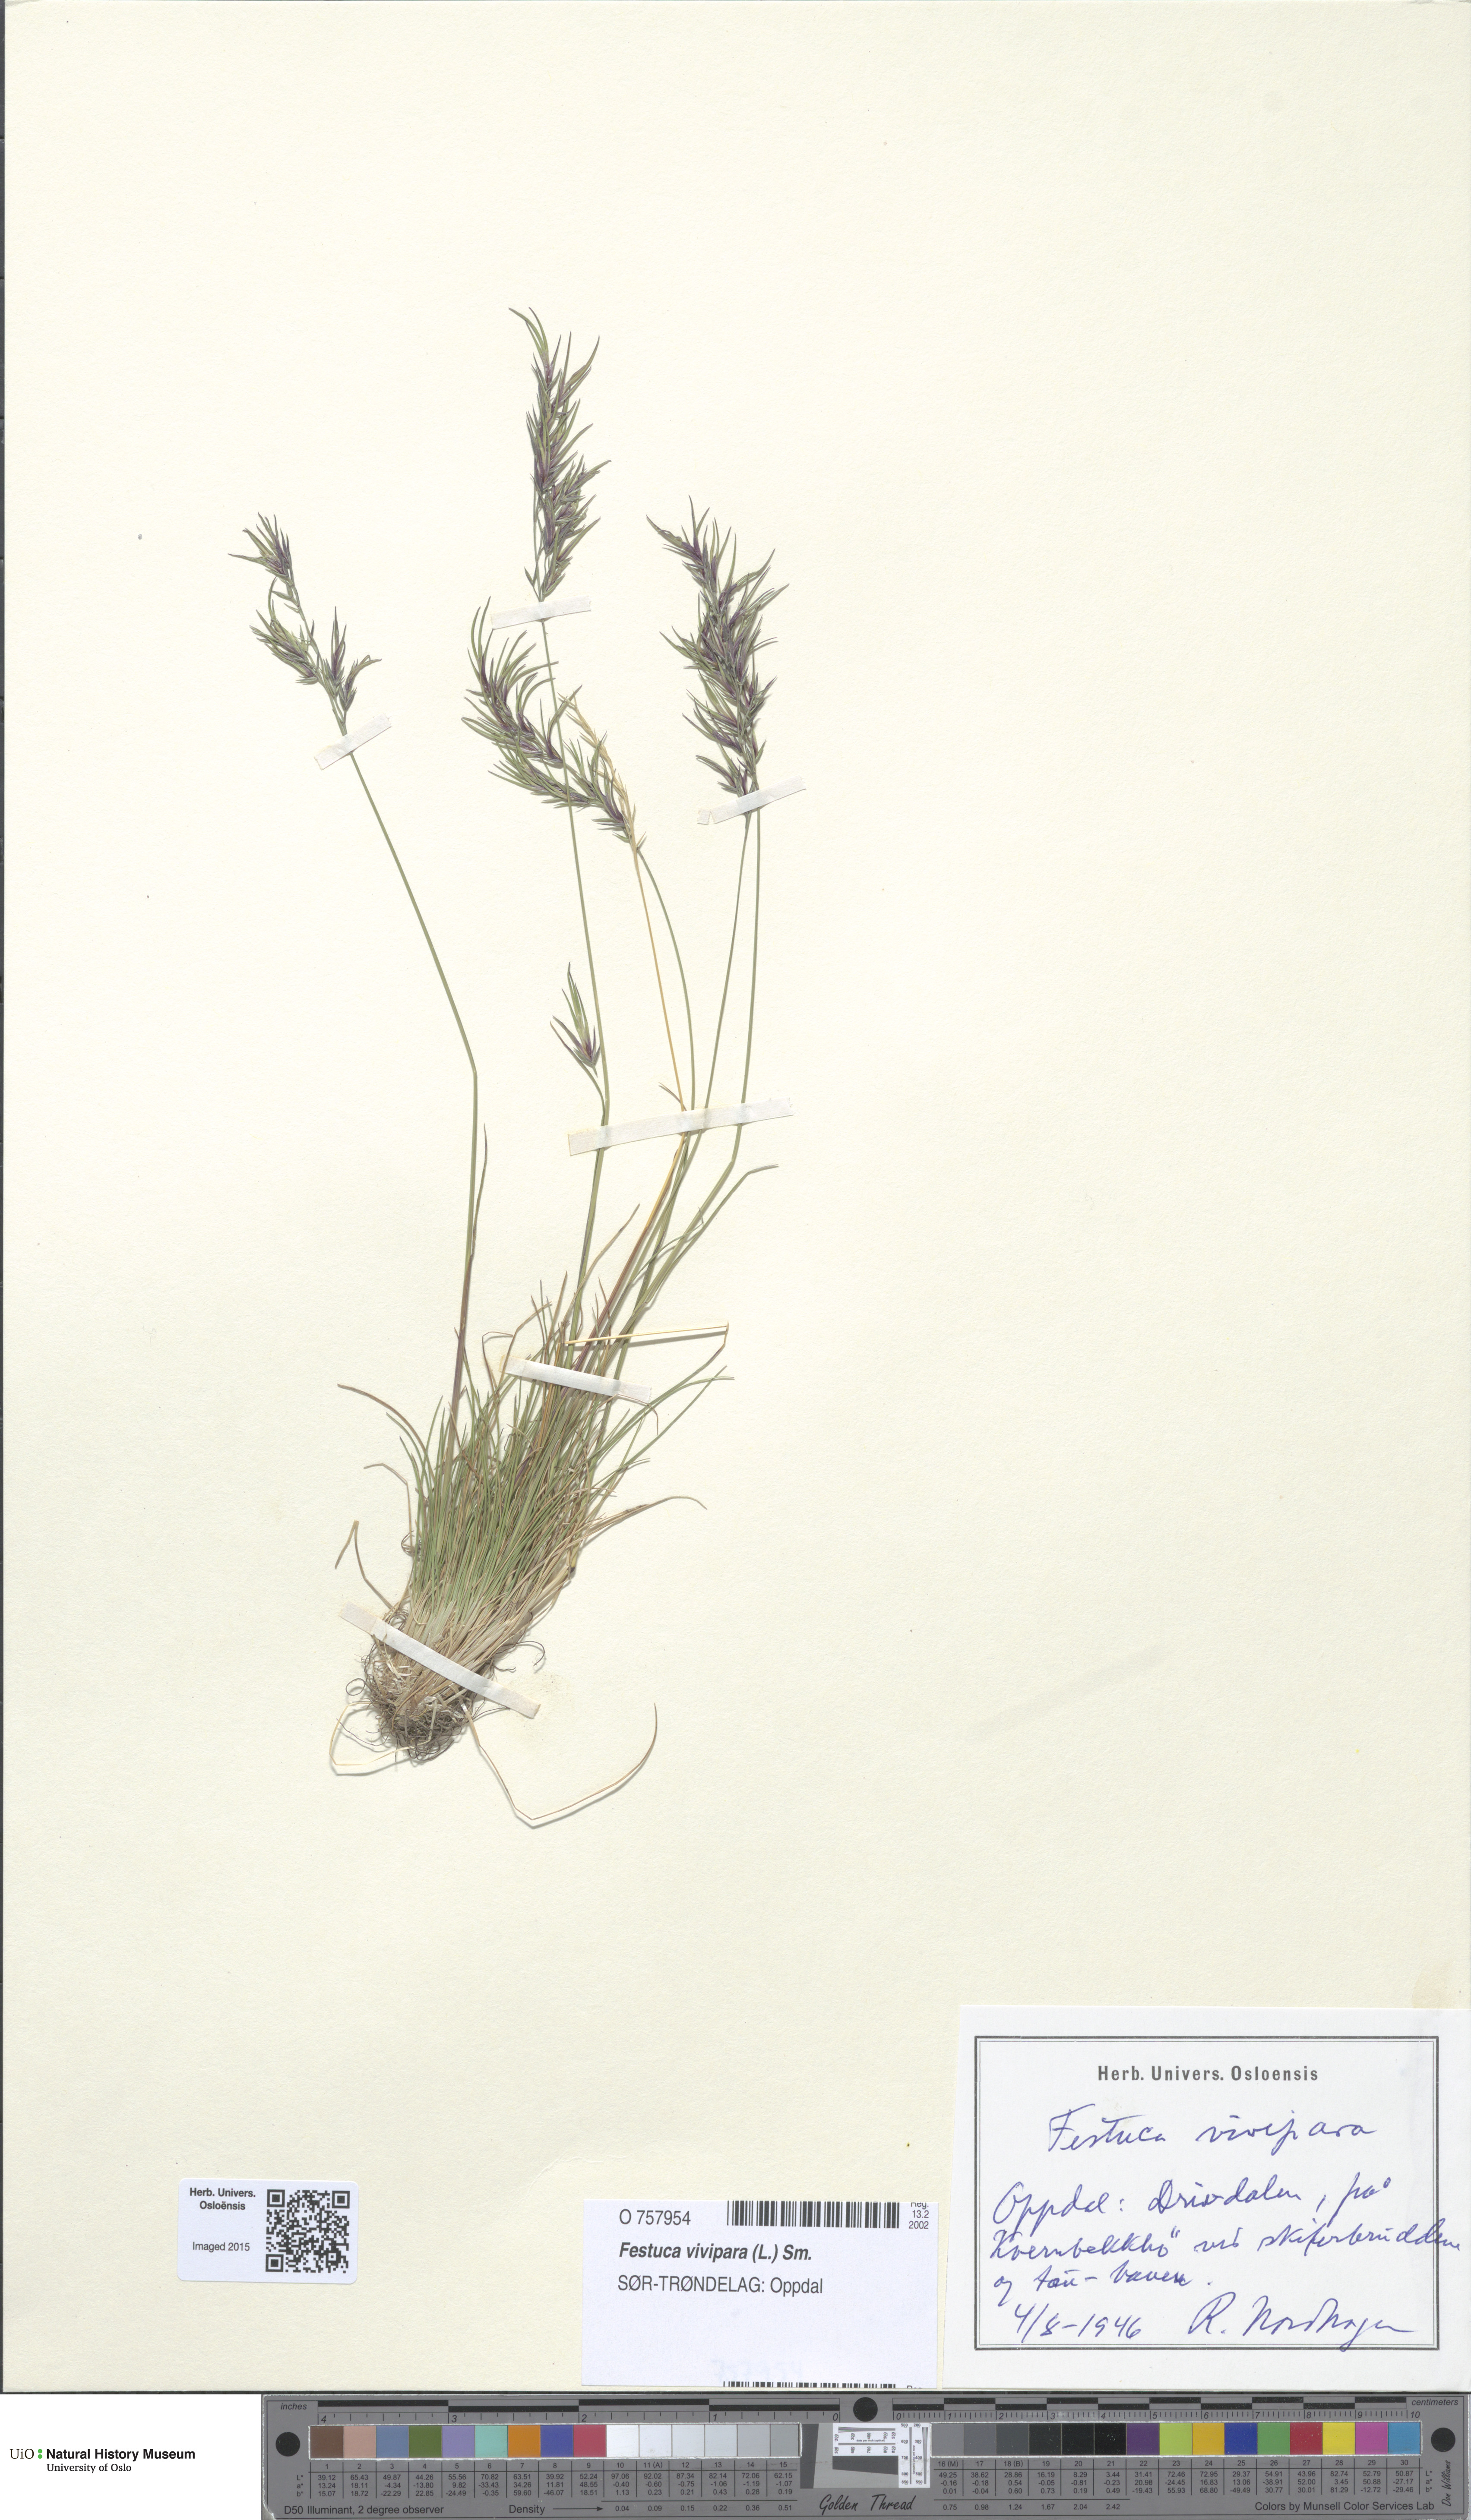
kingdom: Plantae
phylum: Tracheophyta
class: Liliopsida
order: Poales
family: Poaceae
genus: Festuca
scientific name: Festuca vivipara
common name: Viviparous sheep's-fescue
